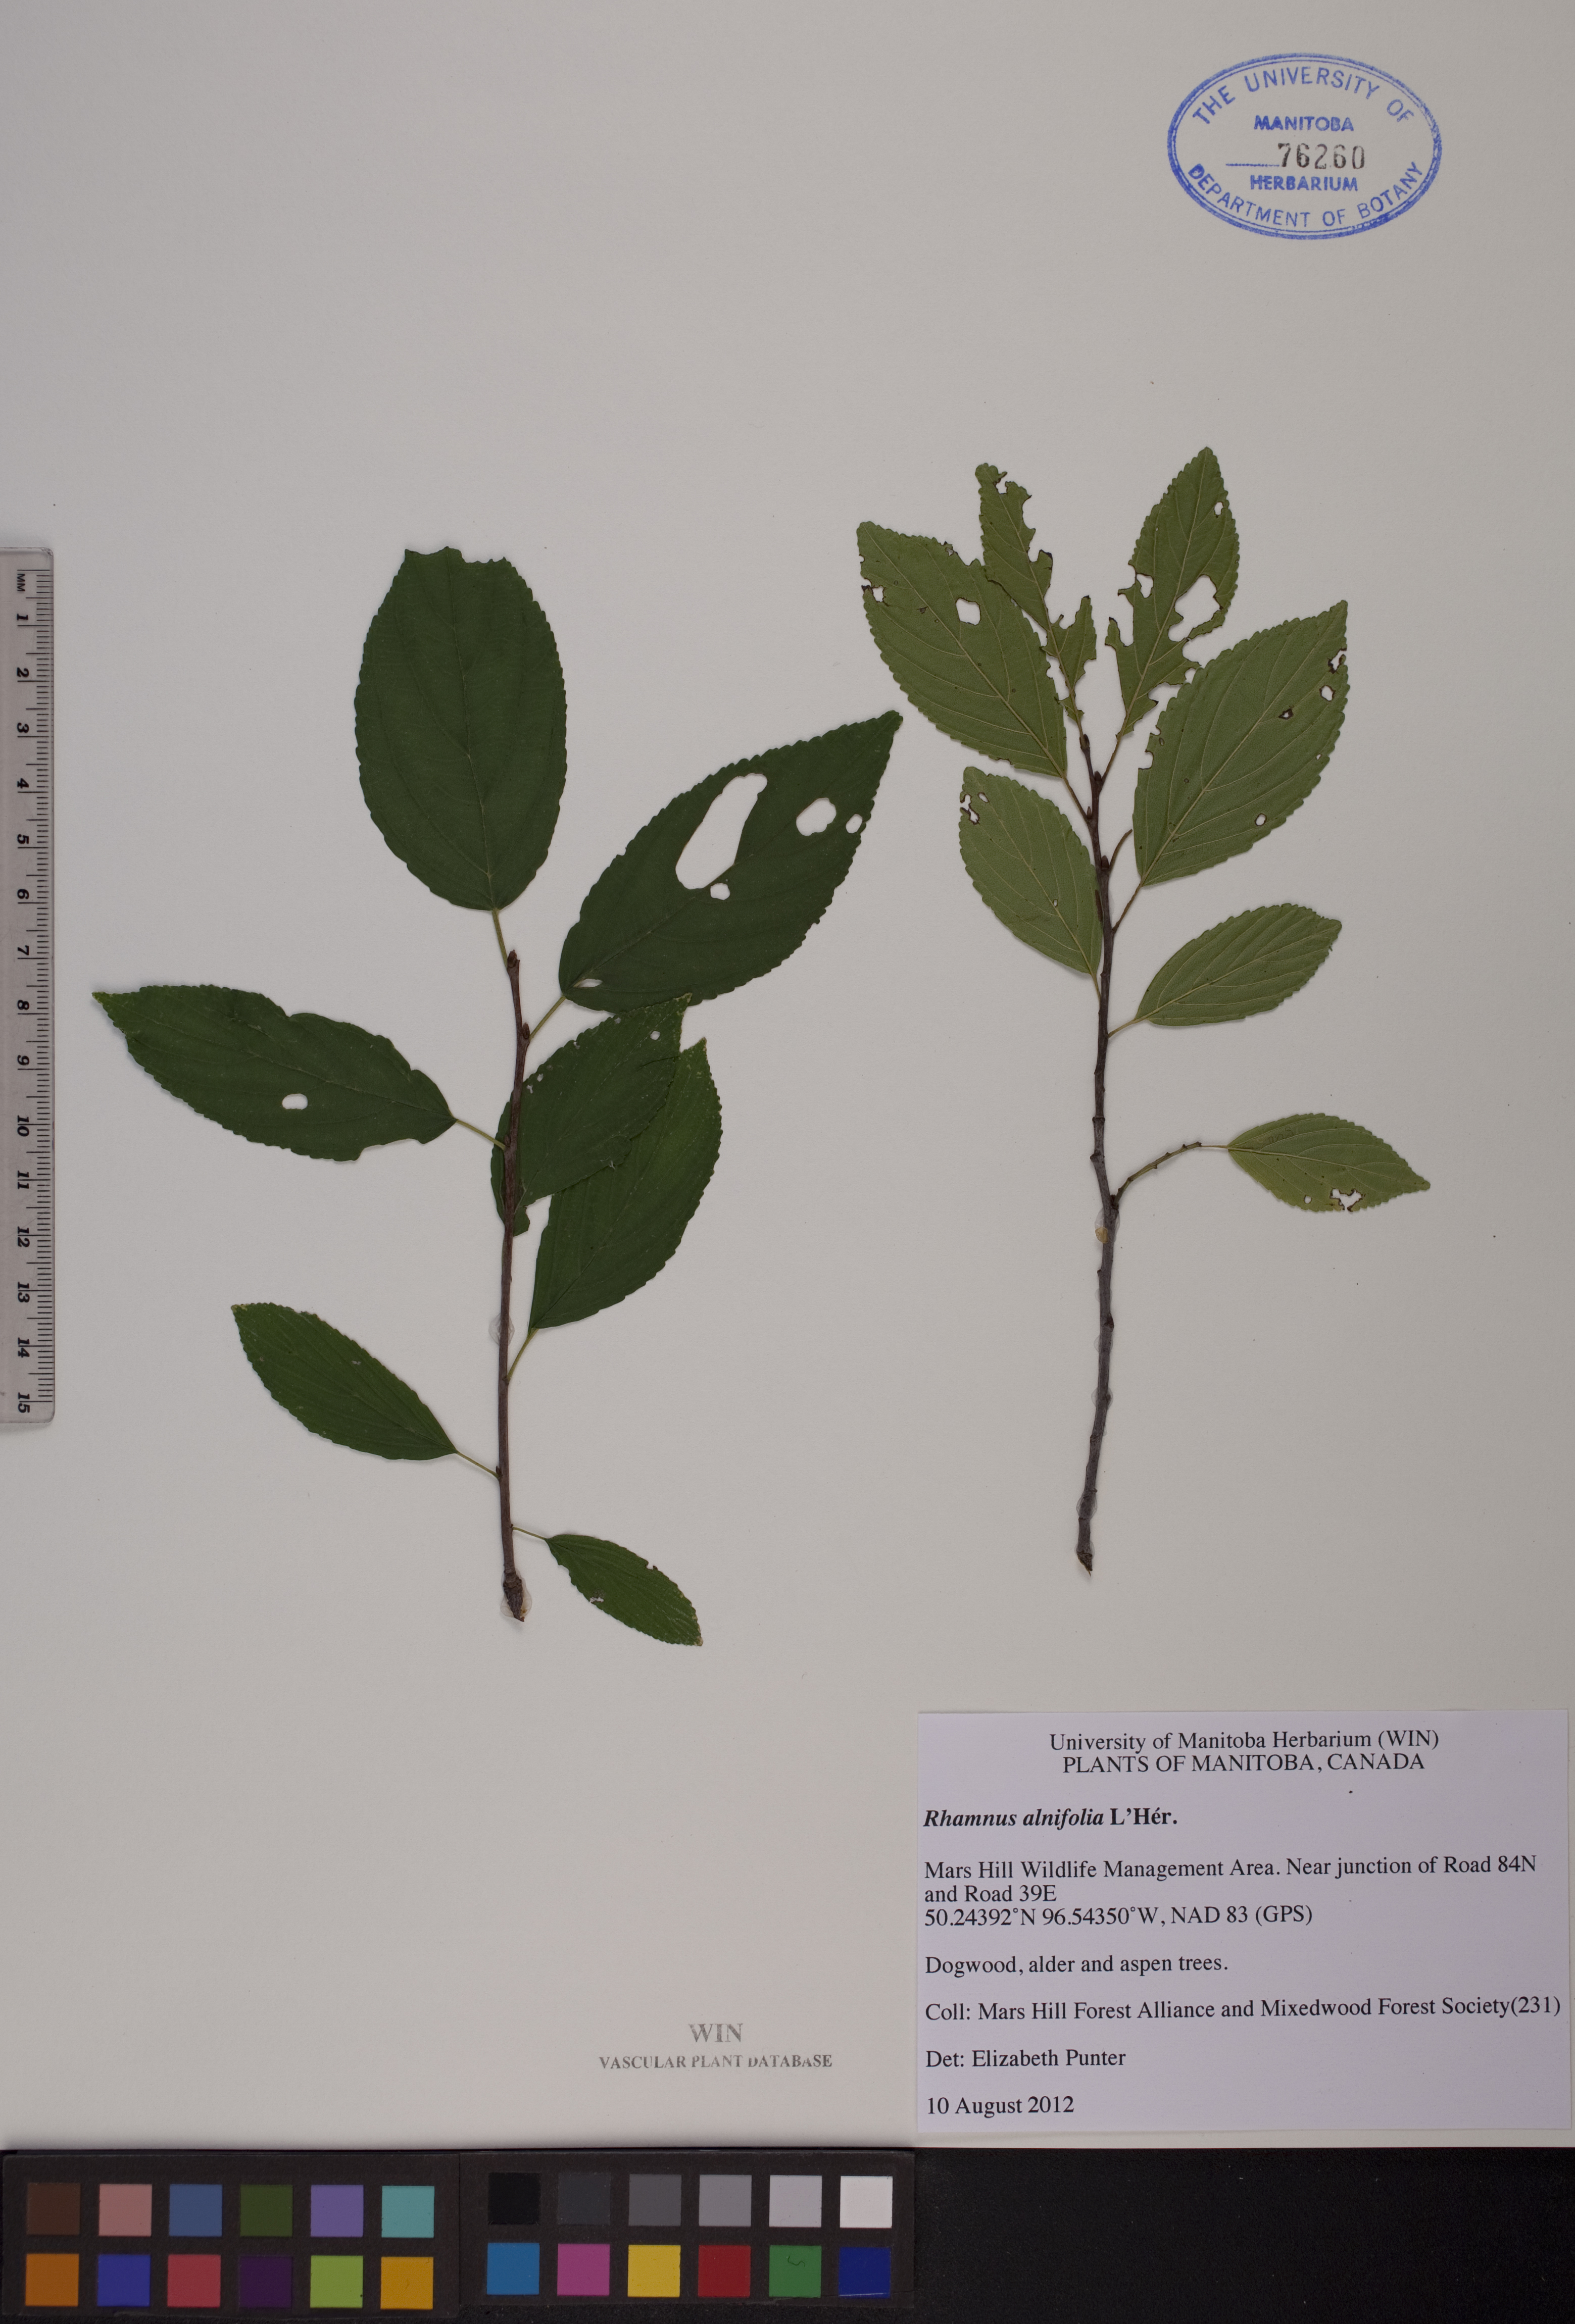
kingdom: Plantae
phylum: Tracheophyta
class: Magnoliopsida
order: Rosales
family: Rhamnaceae
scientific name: Rhamnaceae
